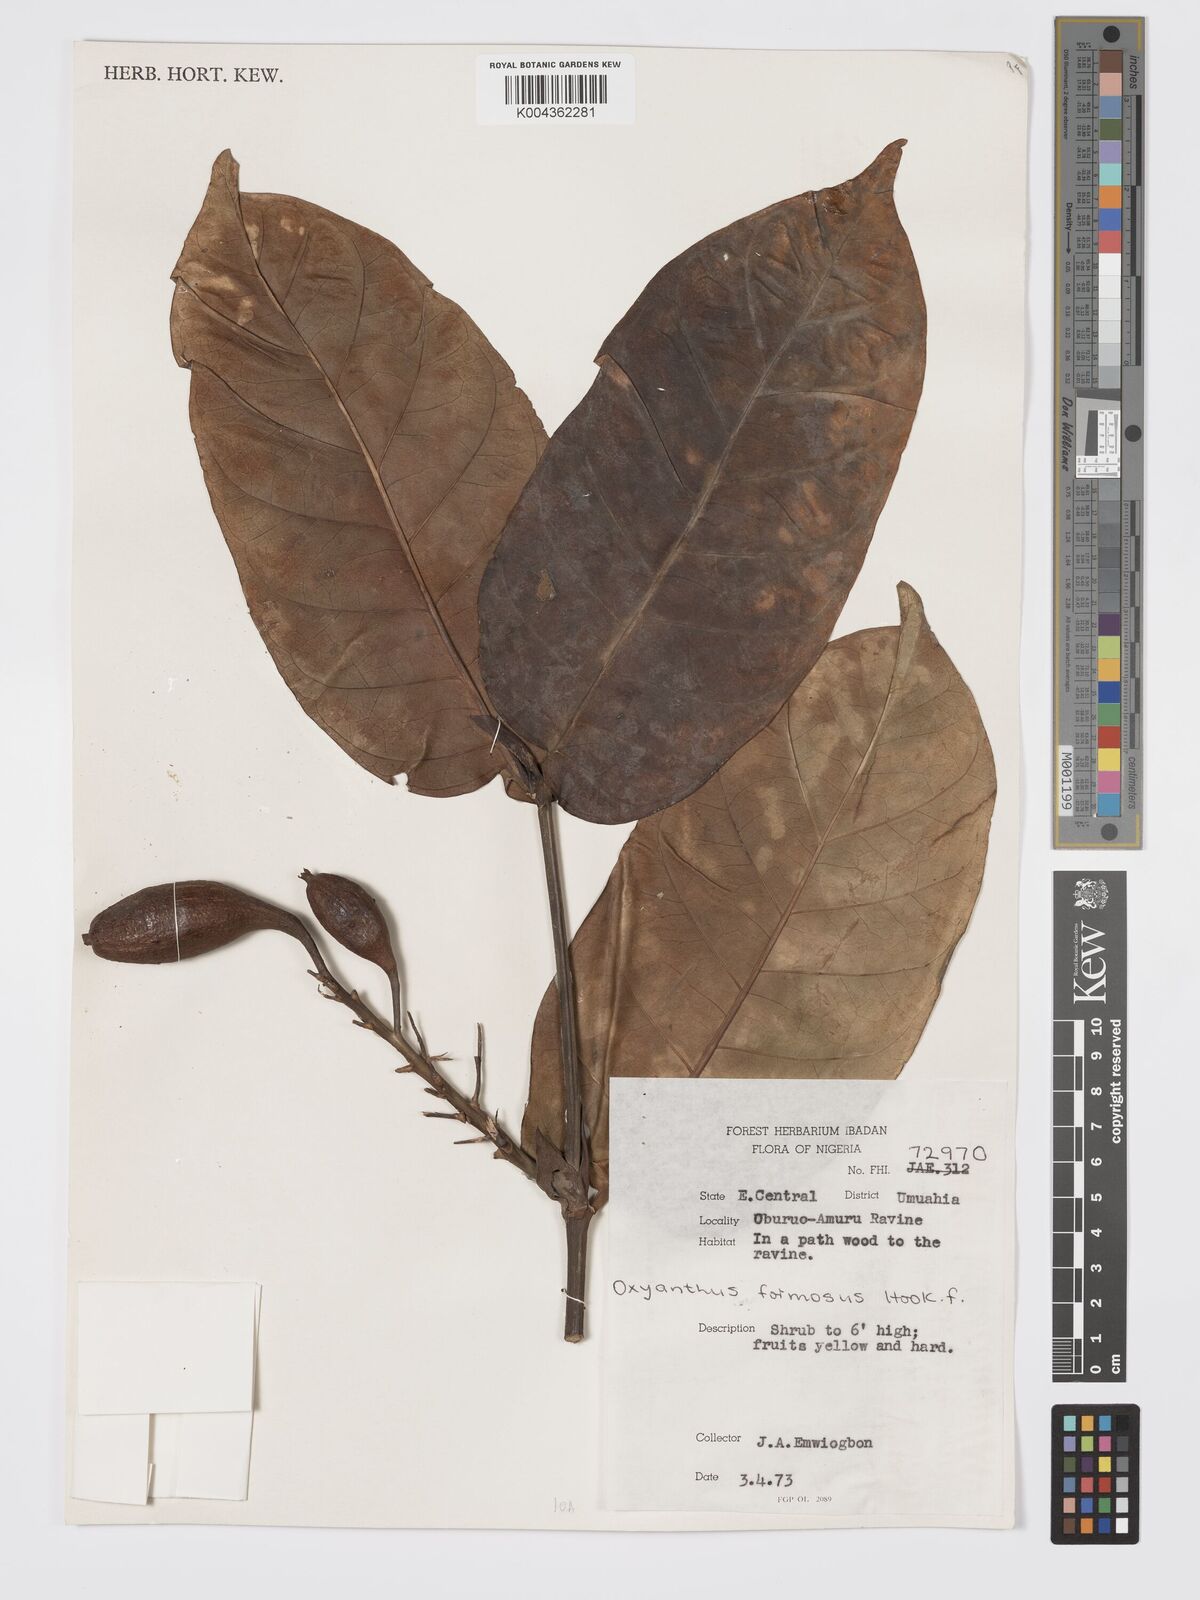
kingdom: Plantae
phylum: Tracheophyta
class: Magnoliopsida
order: Gentianales
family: Rubiaceae
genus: Oxyanthus
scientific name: Oxyanthus formosus
